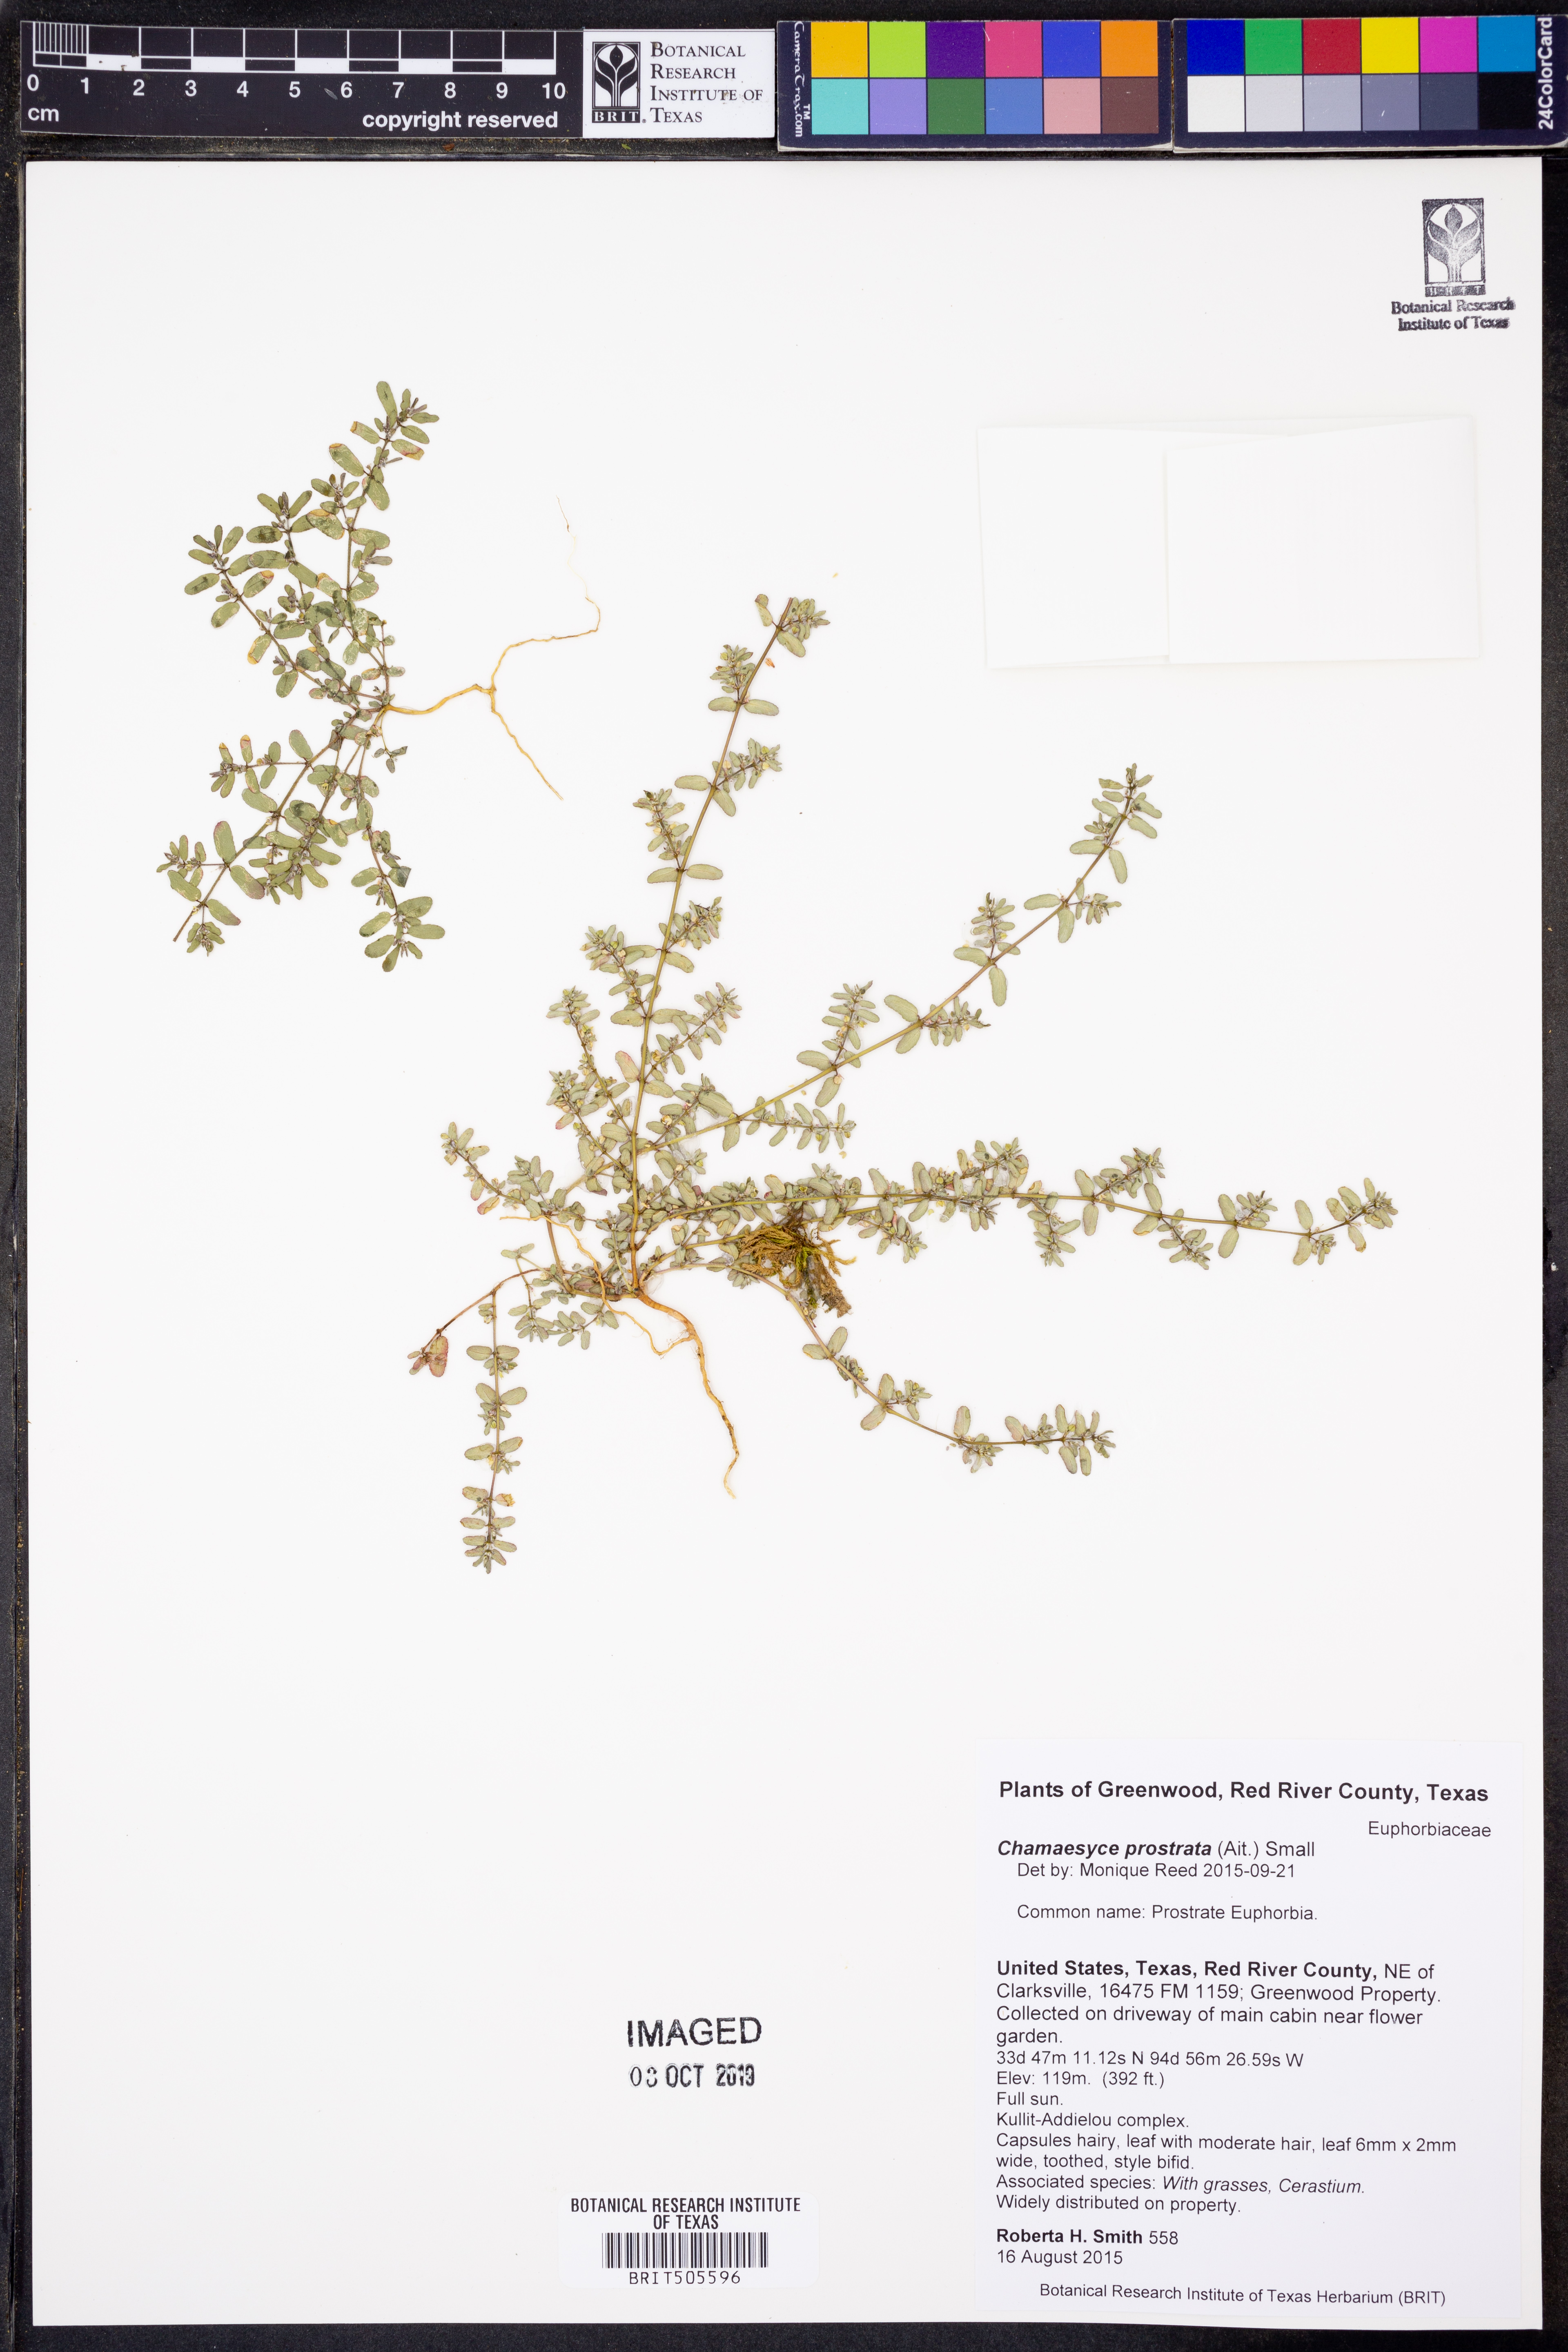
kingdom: Plantae
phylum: Tracheophyta
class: Magnoliopsida
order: Malpighiales
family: Euphorbiaceae
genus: Euphorbia
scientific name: Euphorbia prostrata
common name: Prostrate sandmat
